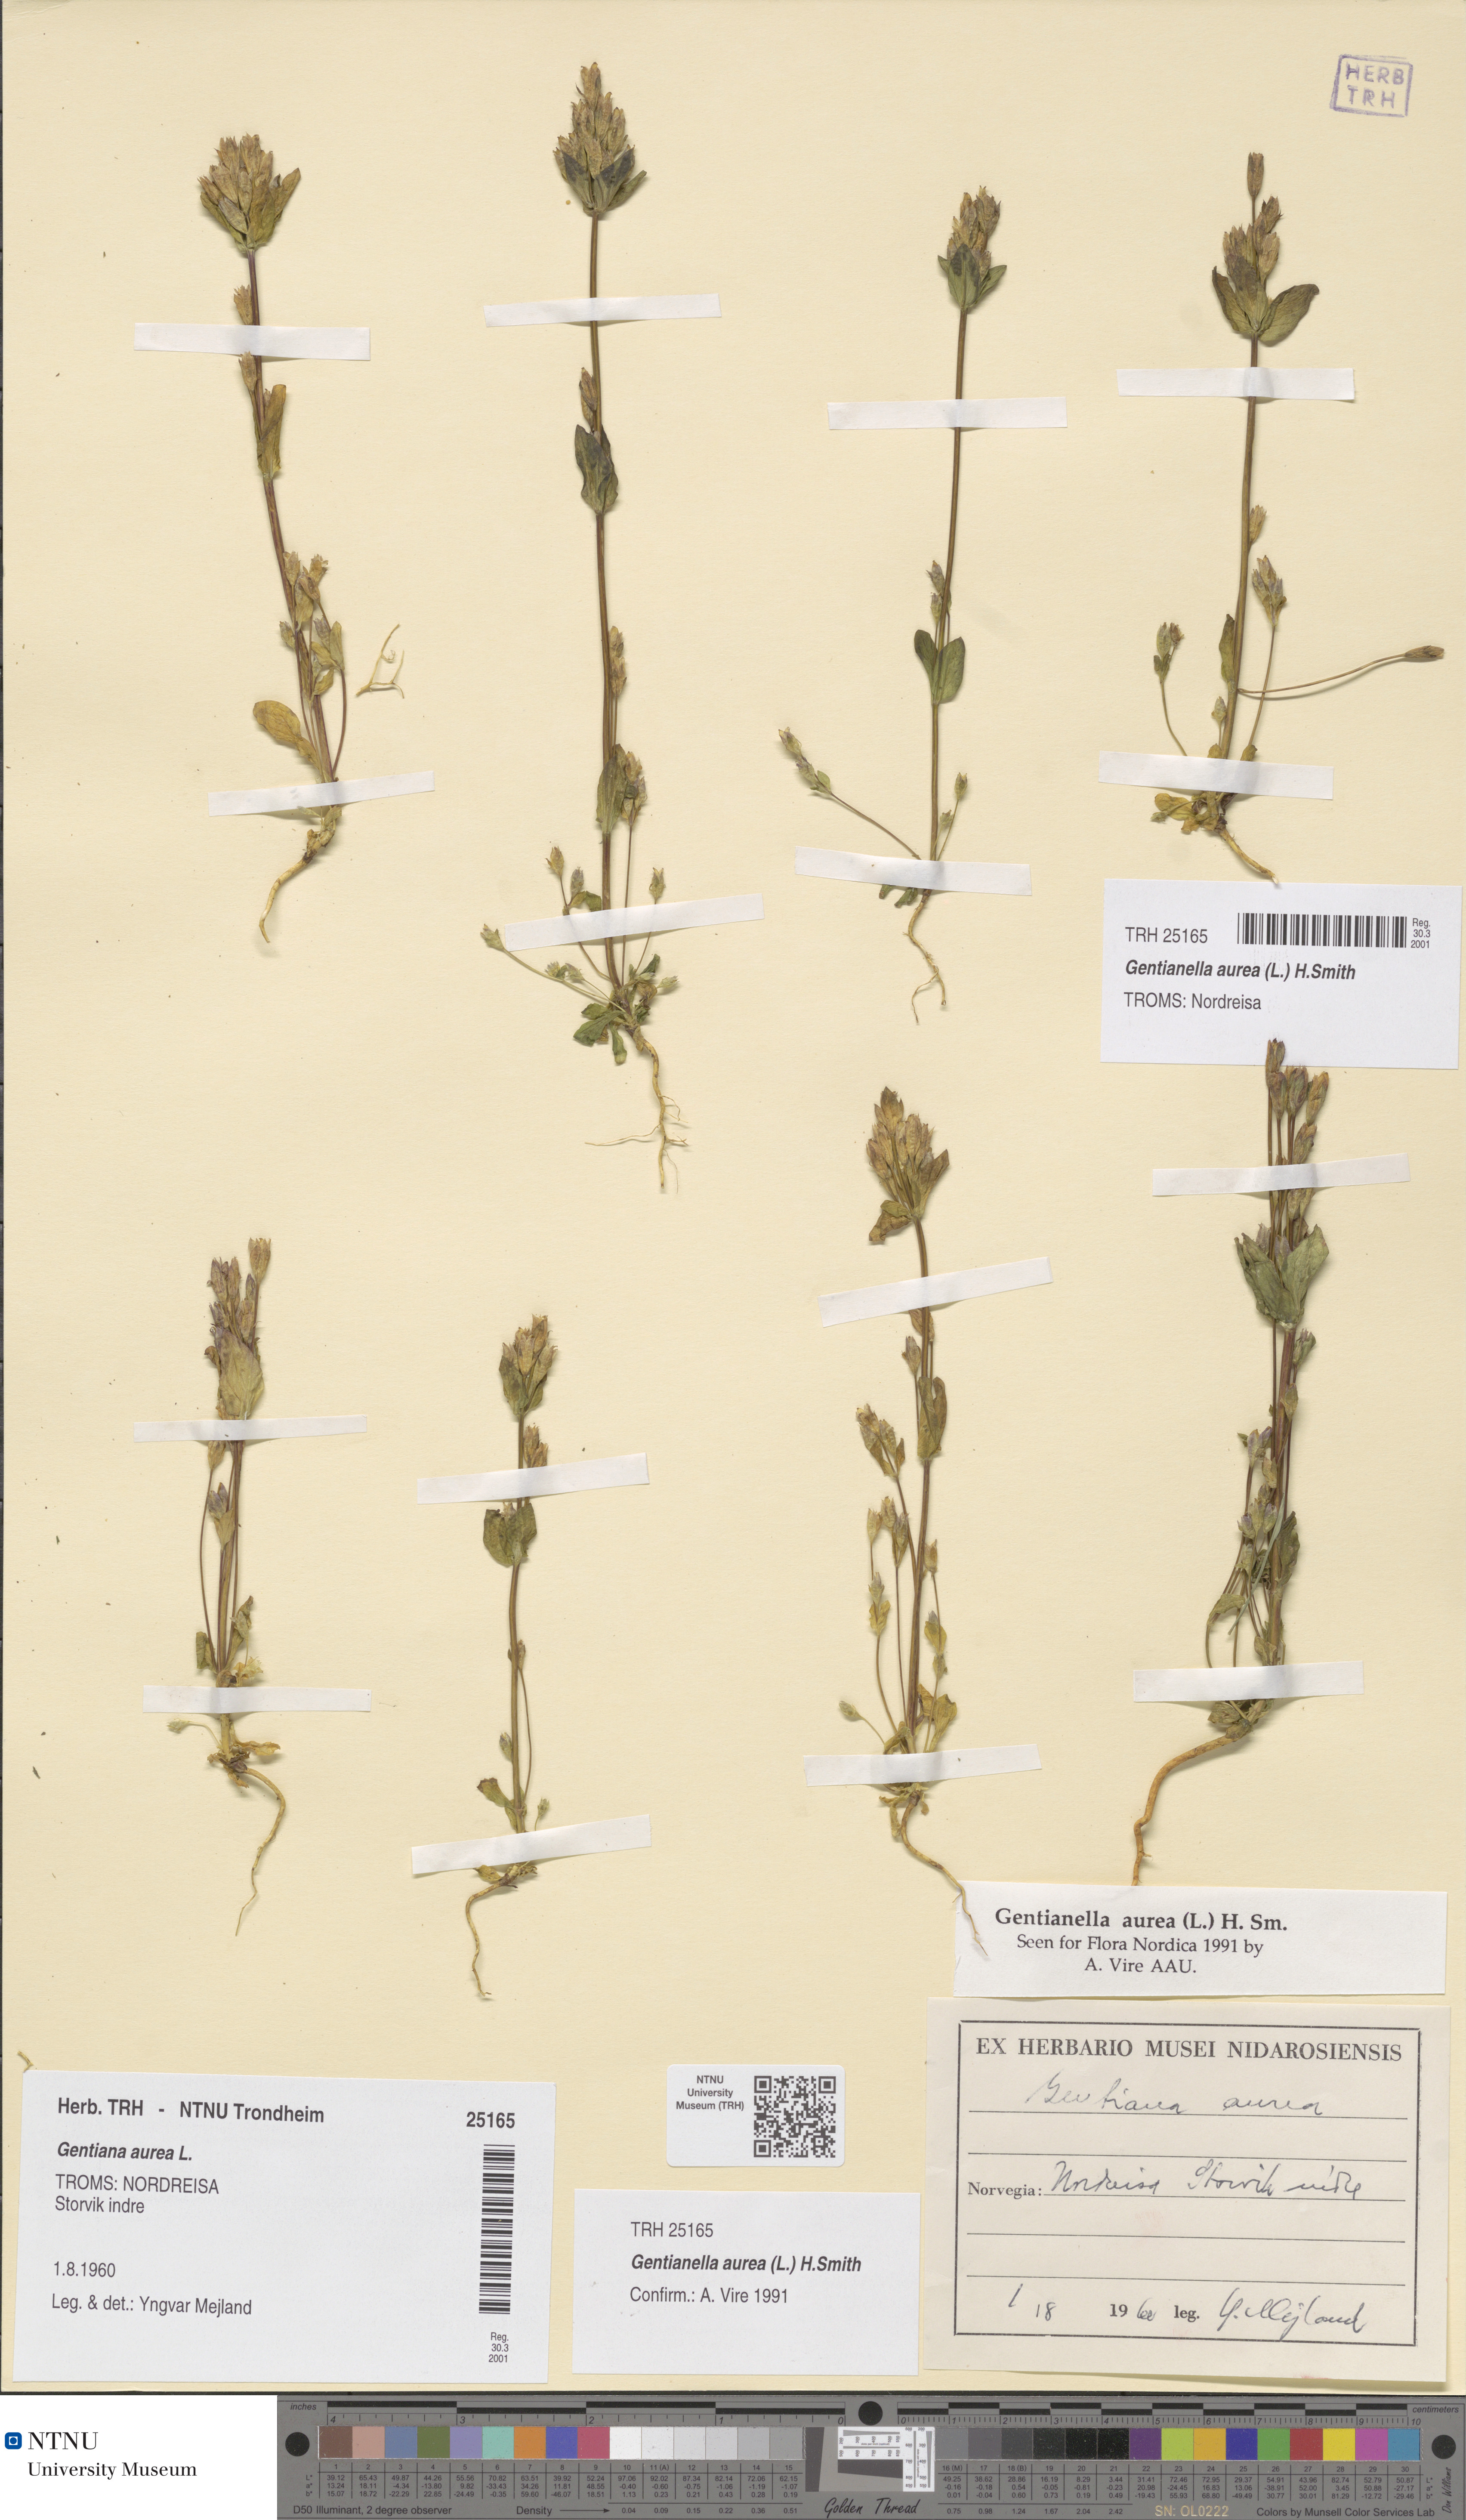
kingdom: Plantae
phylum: Tracheophyta
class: Magnoliopsida
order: Gentianales
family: Gentianaceae
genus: Gentianella
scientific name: Gentianella aurea
